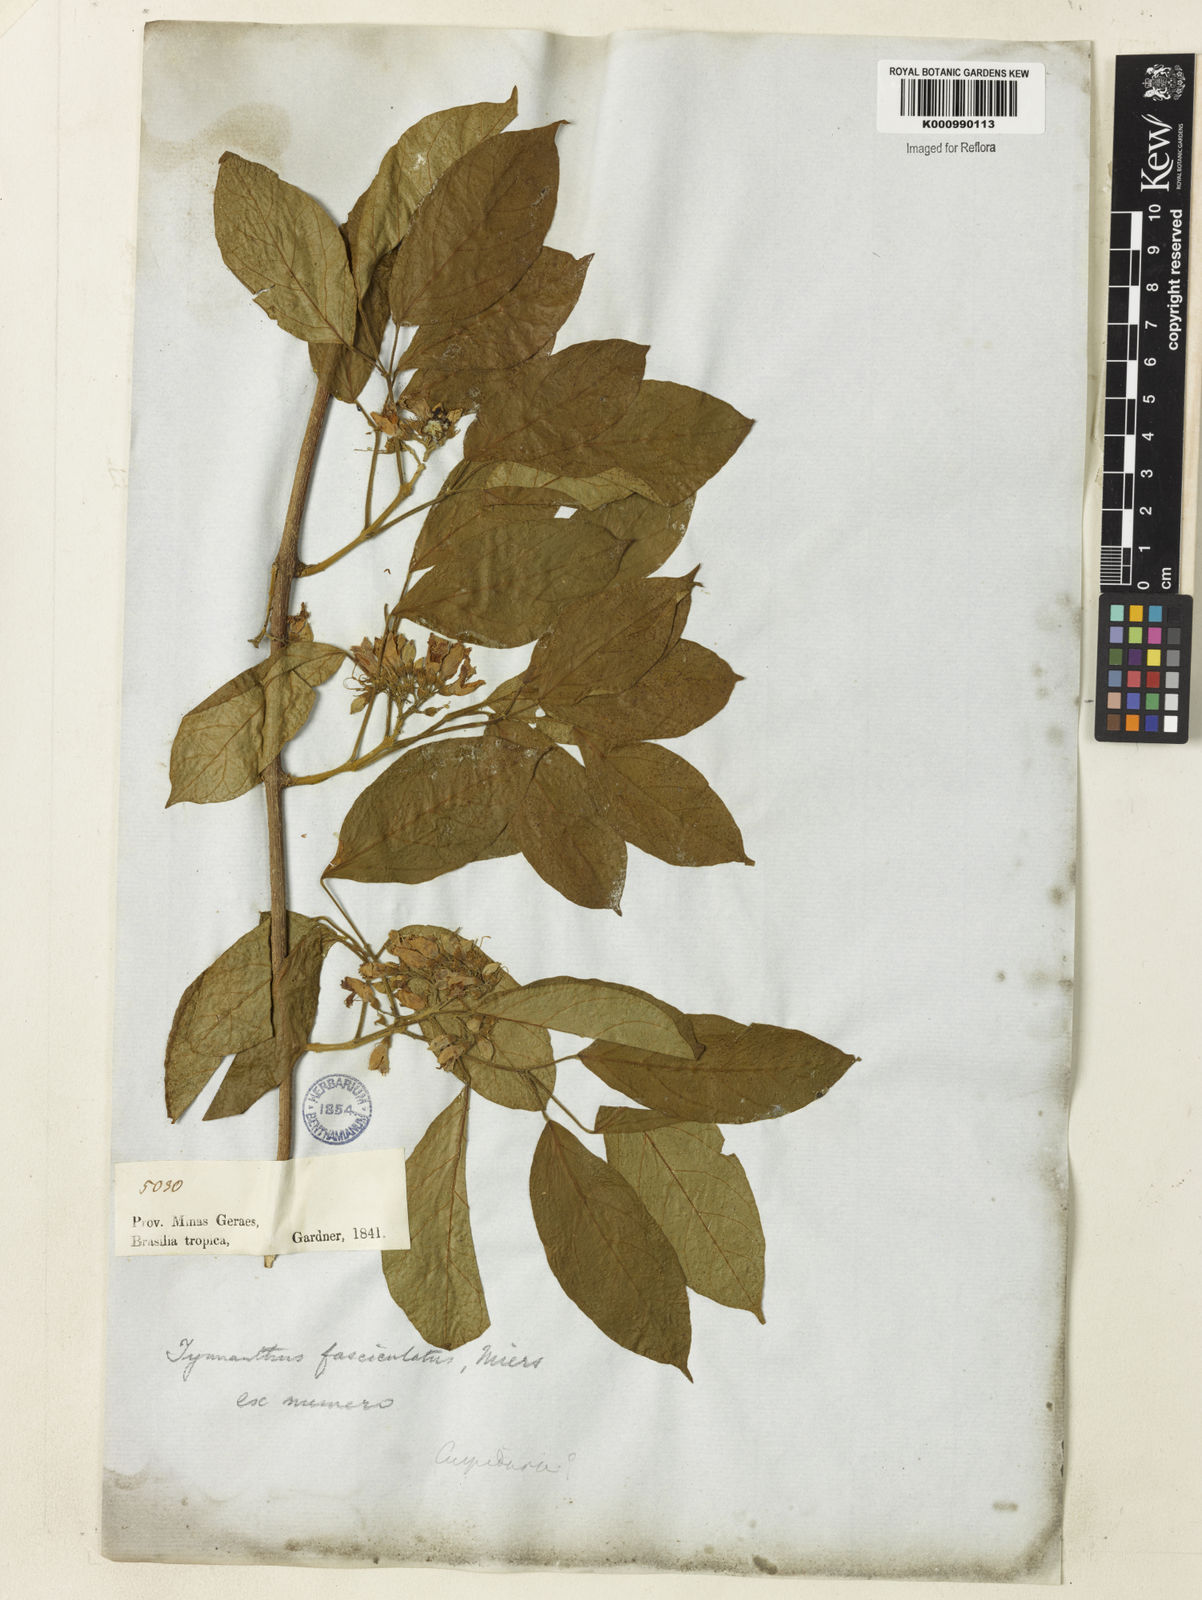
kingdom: Plantae
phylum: Tracheophyta
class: Magnoliopsida
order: Lamiales
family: Bignoniaceae
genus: Tynanthus
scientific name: Tynanthus fasciculatus
